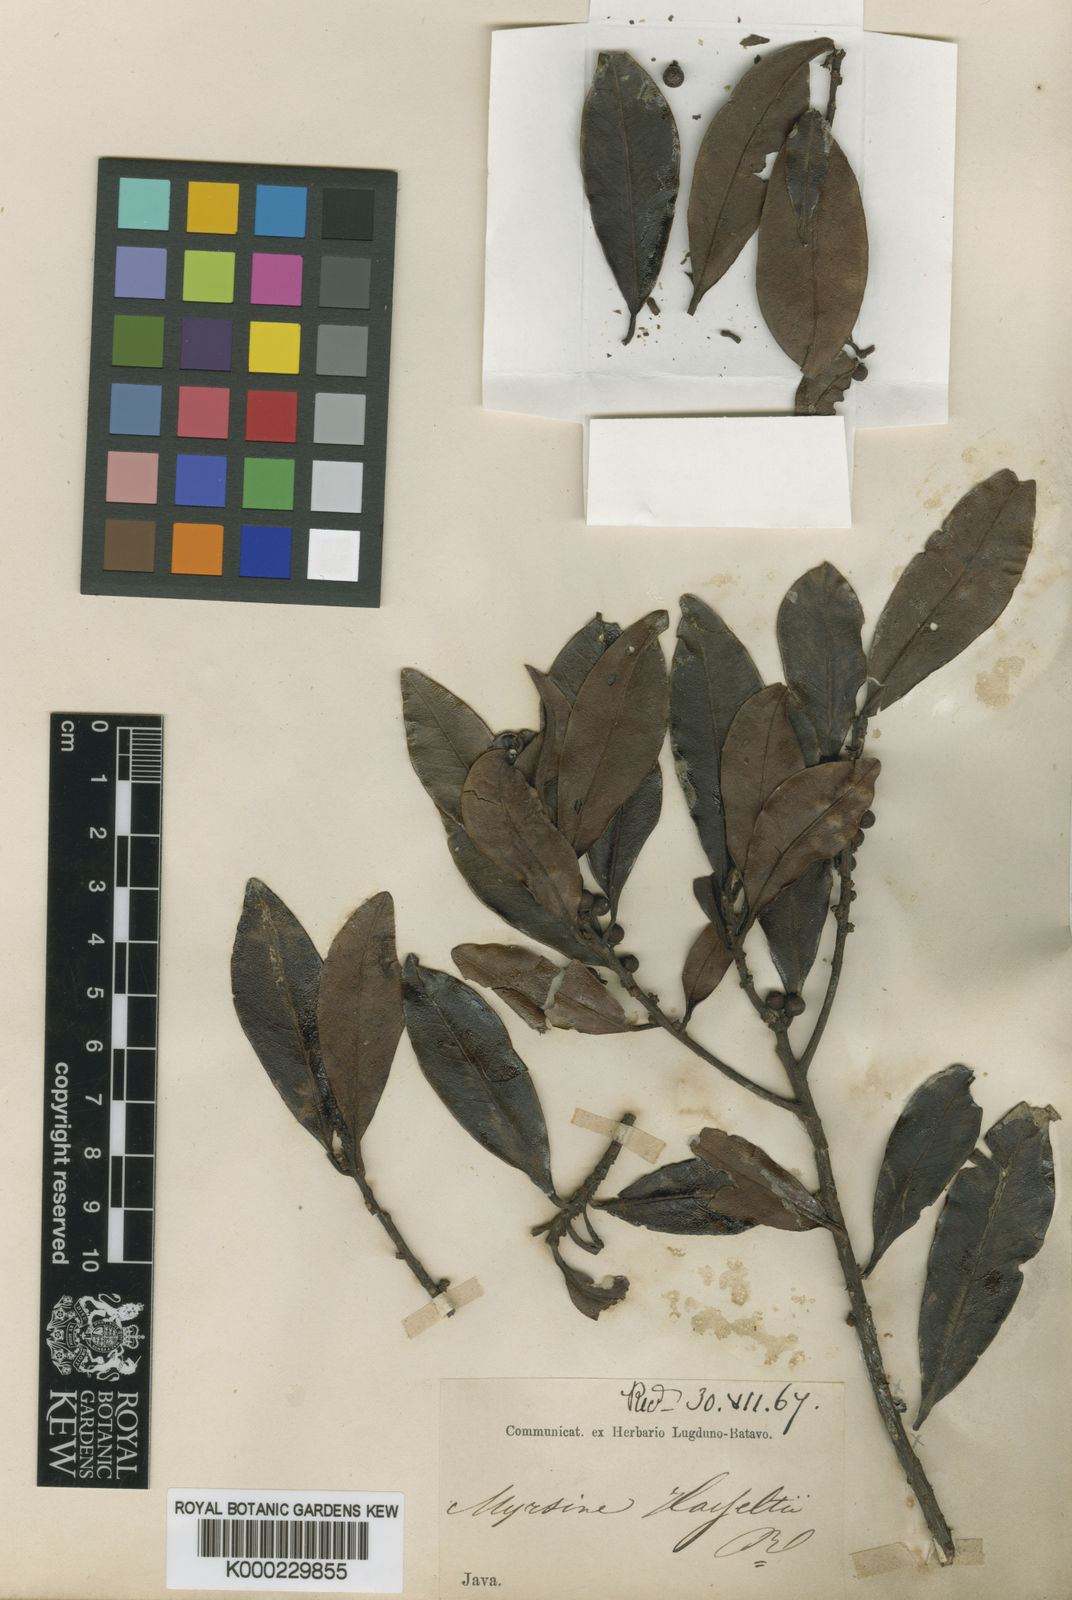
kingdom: Plantae
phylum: Tracheophyta
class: Magnoliopsida
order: Ericales
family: Primulaceae
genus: Myrsine
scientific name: Myrsine hasseltii
